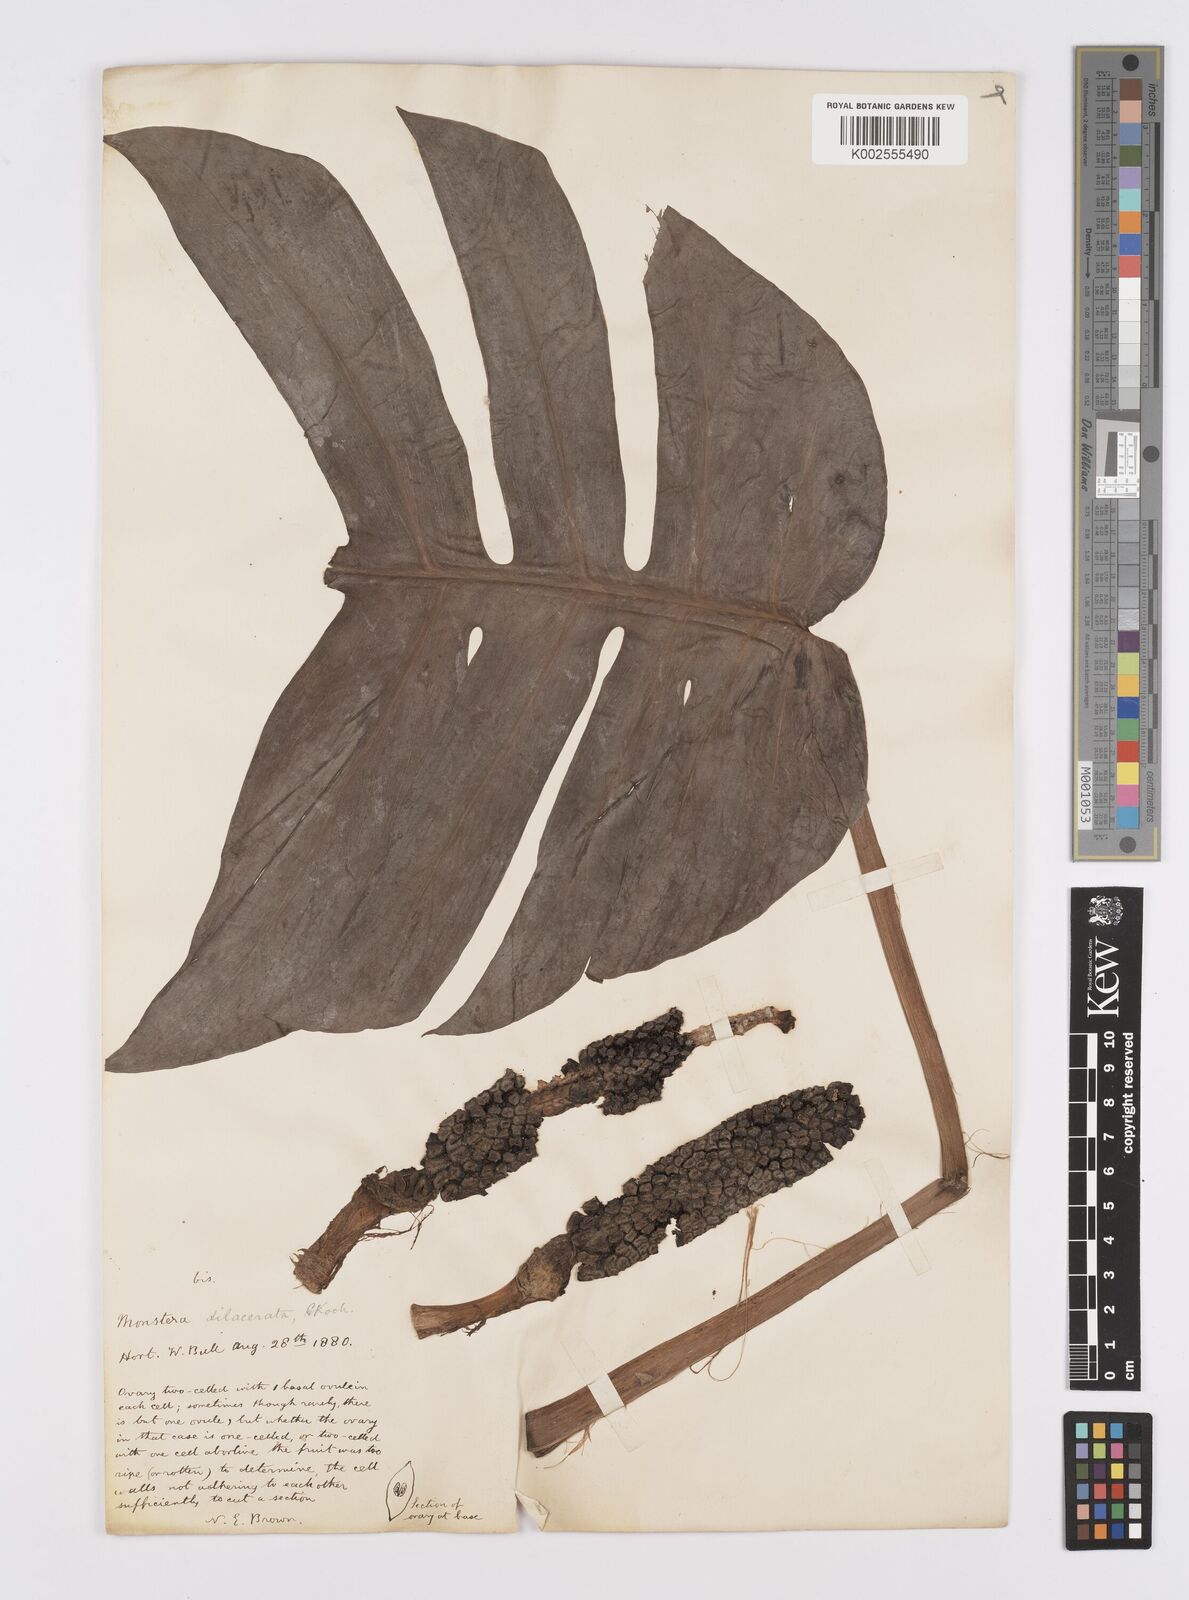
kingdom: Plantae
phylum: Tracheophyta
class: Liliopsida
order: Alismatales
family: Araceae
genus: Epipremnum
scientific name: Epipremnum pinnatum
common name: Centipede tongavine
